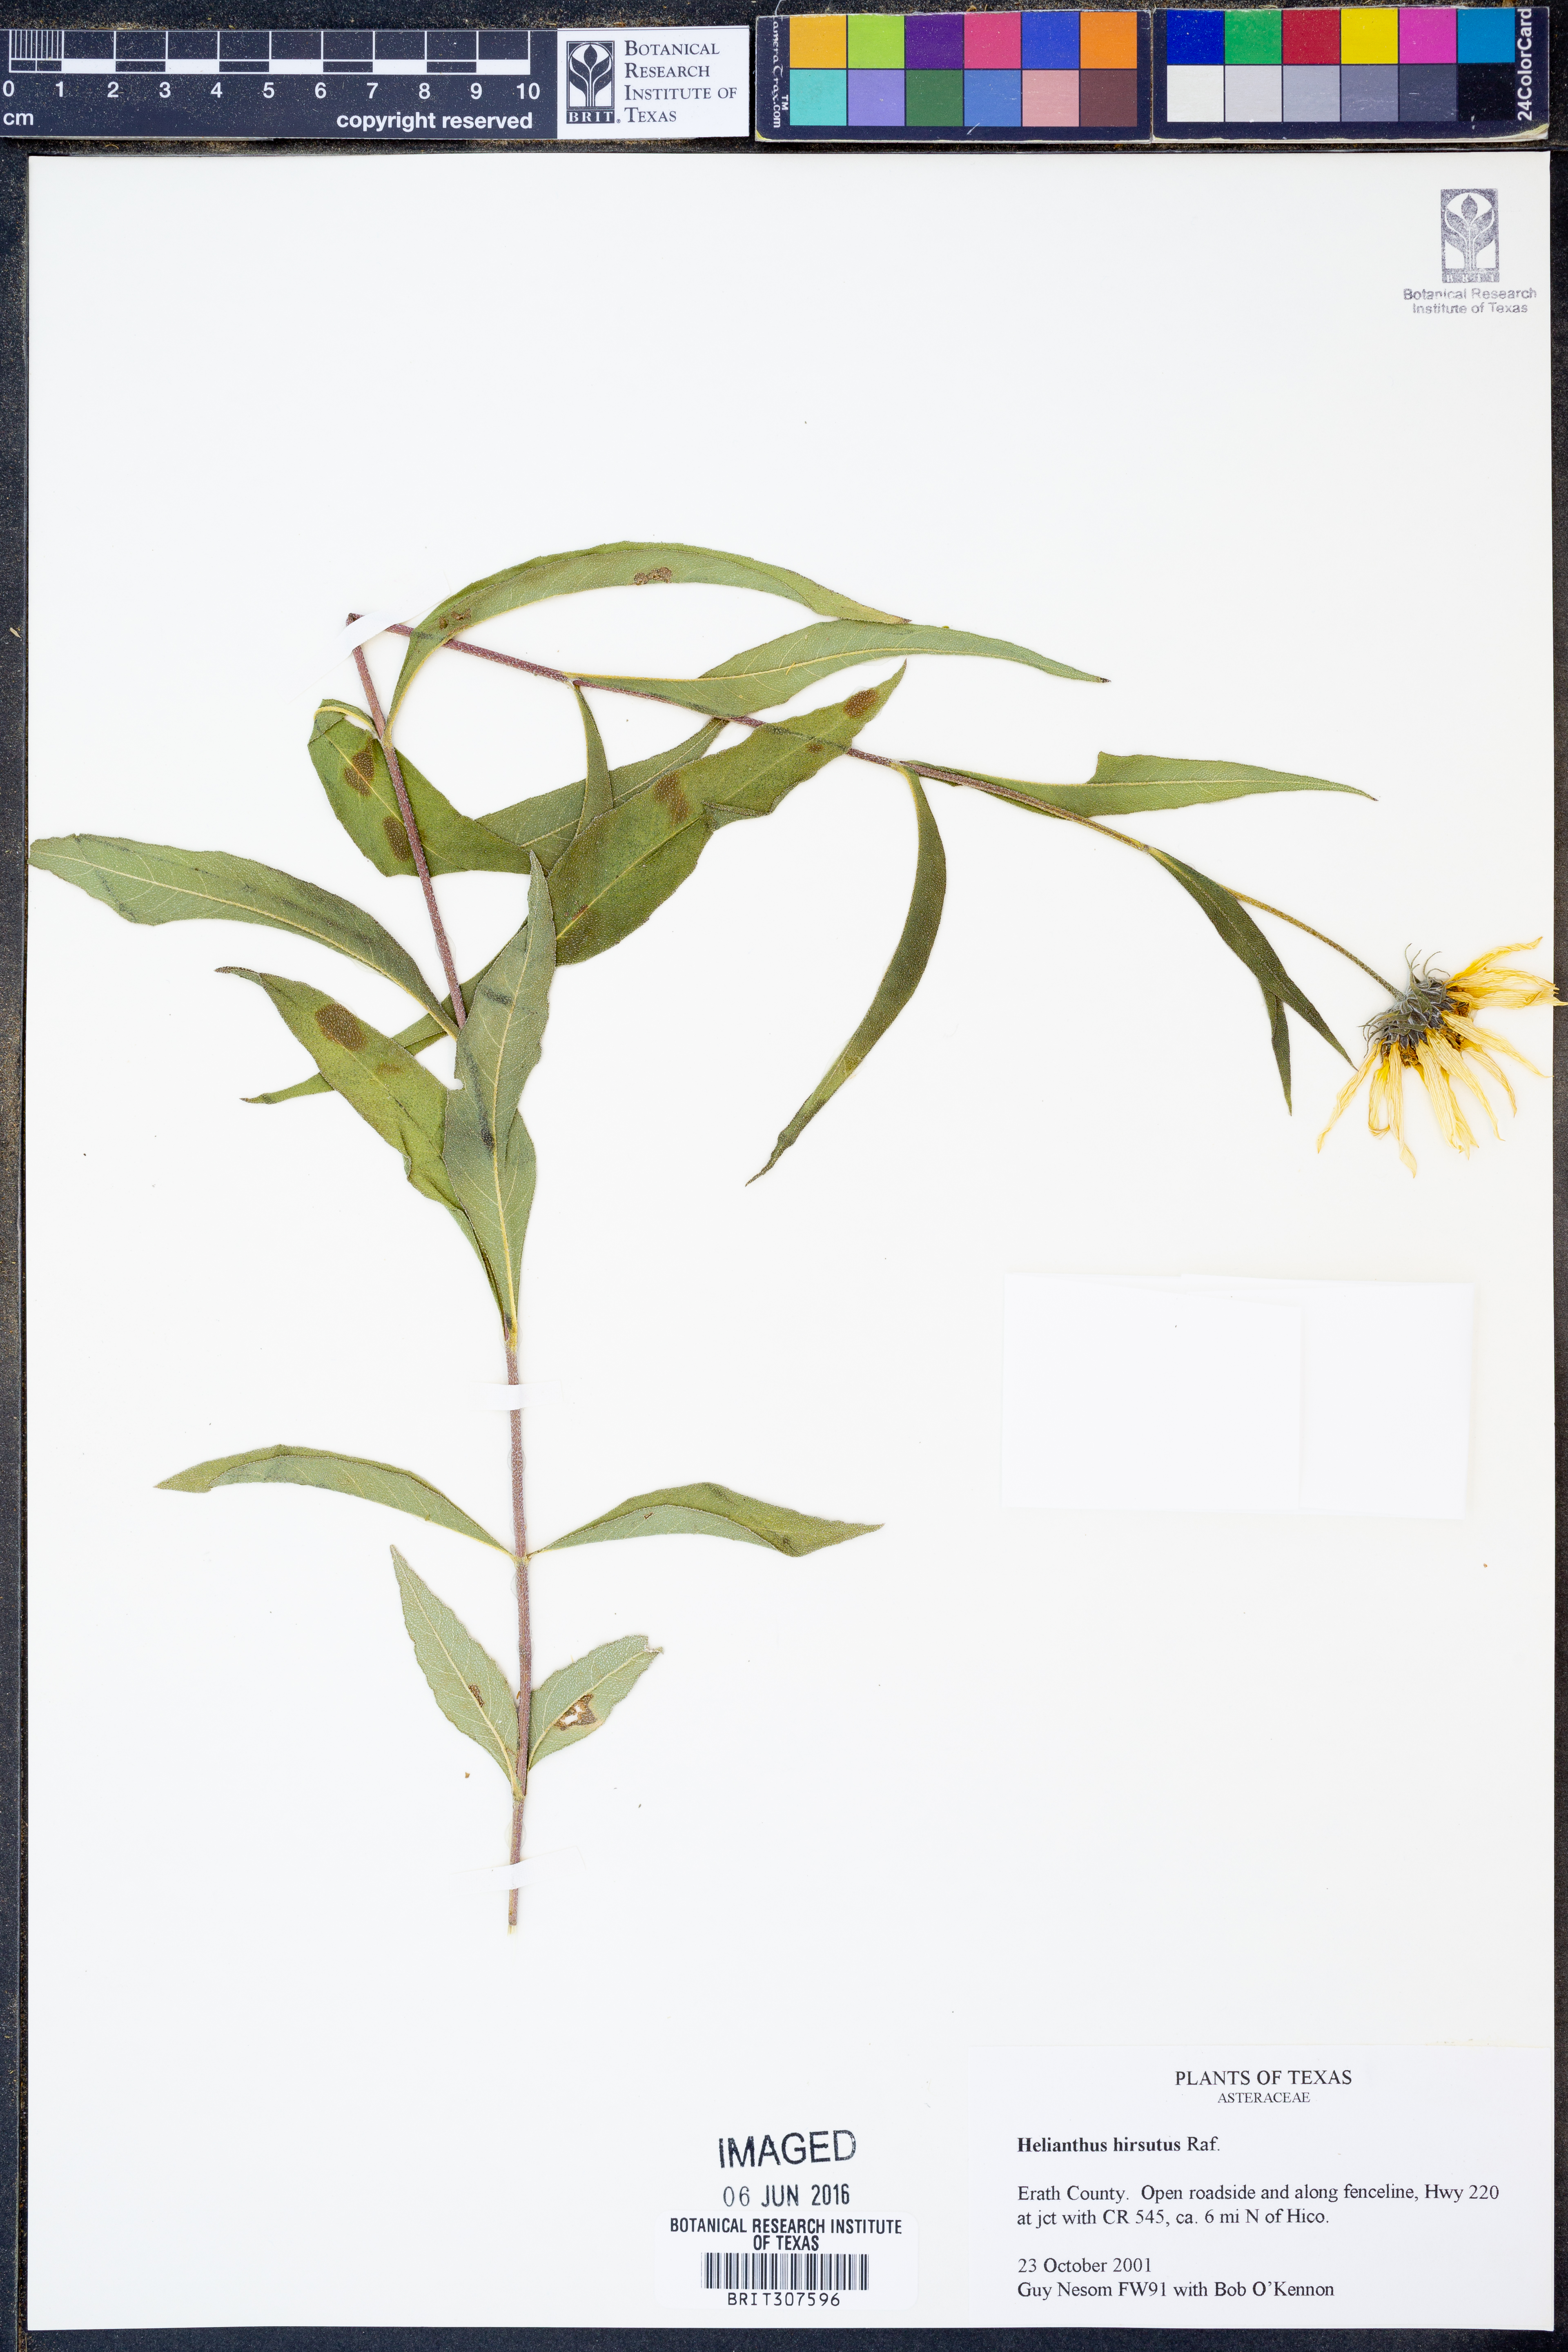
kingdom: Plantae
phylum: Tracheophyta
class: Magnoliopsida
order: Asterales
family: Asteraceae
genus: Helianthus
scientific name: Helianthus hirsutus
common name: Hairy sunflower
